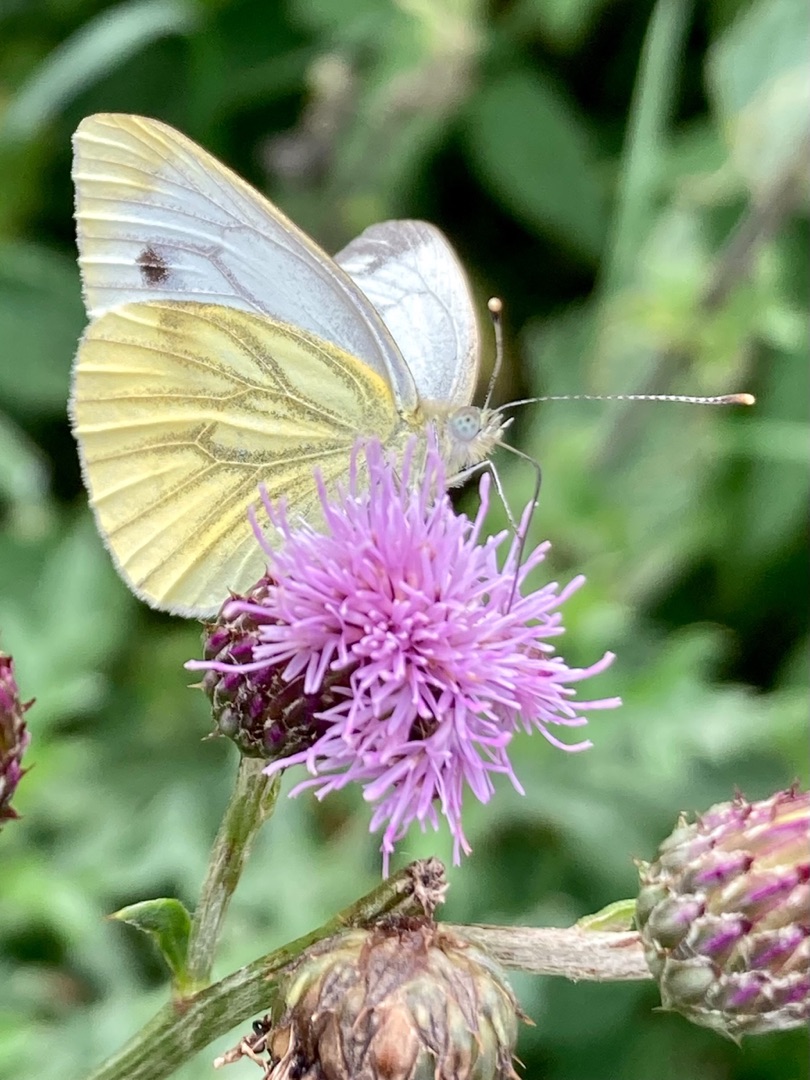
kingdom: Animalia
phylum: Arthropoda
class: Insecta
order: Lepidoptera
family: Pieridae
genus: Pieris
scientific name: Pieris napi
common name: Grønåret kålsommerfugl
